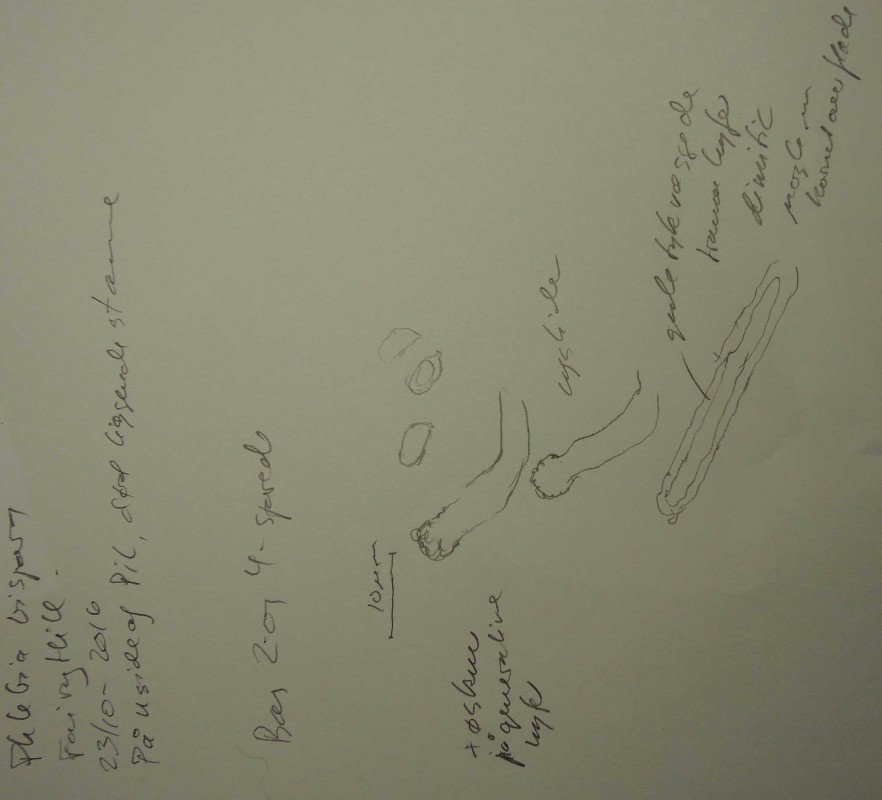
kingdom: Fungi
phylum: Basidiomycota
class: Agaricomycetes
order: Polyporales
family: Meruliaceae
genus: Mycoaciella
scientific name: Mycoaciella bispora
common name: stalaktit-vokspig
